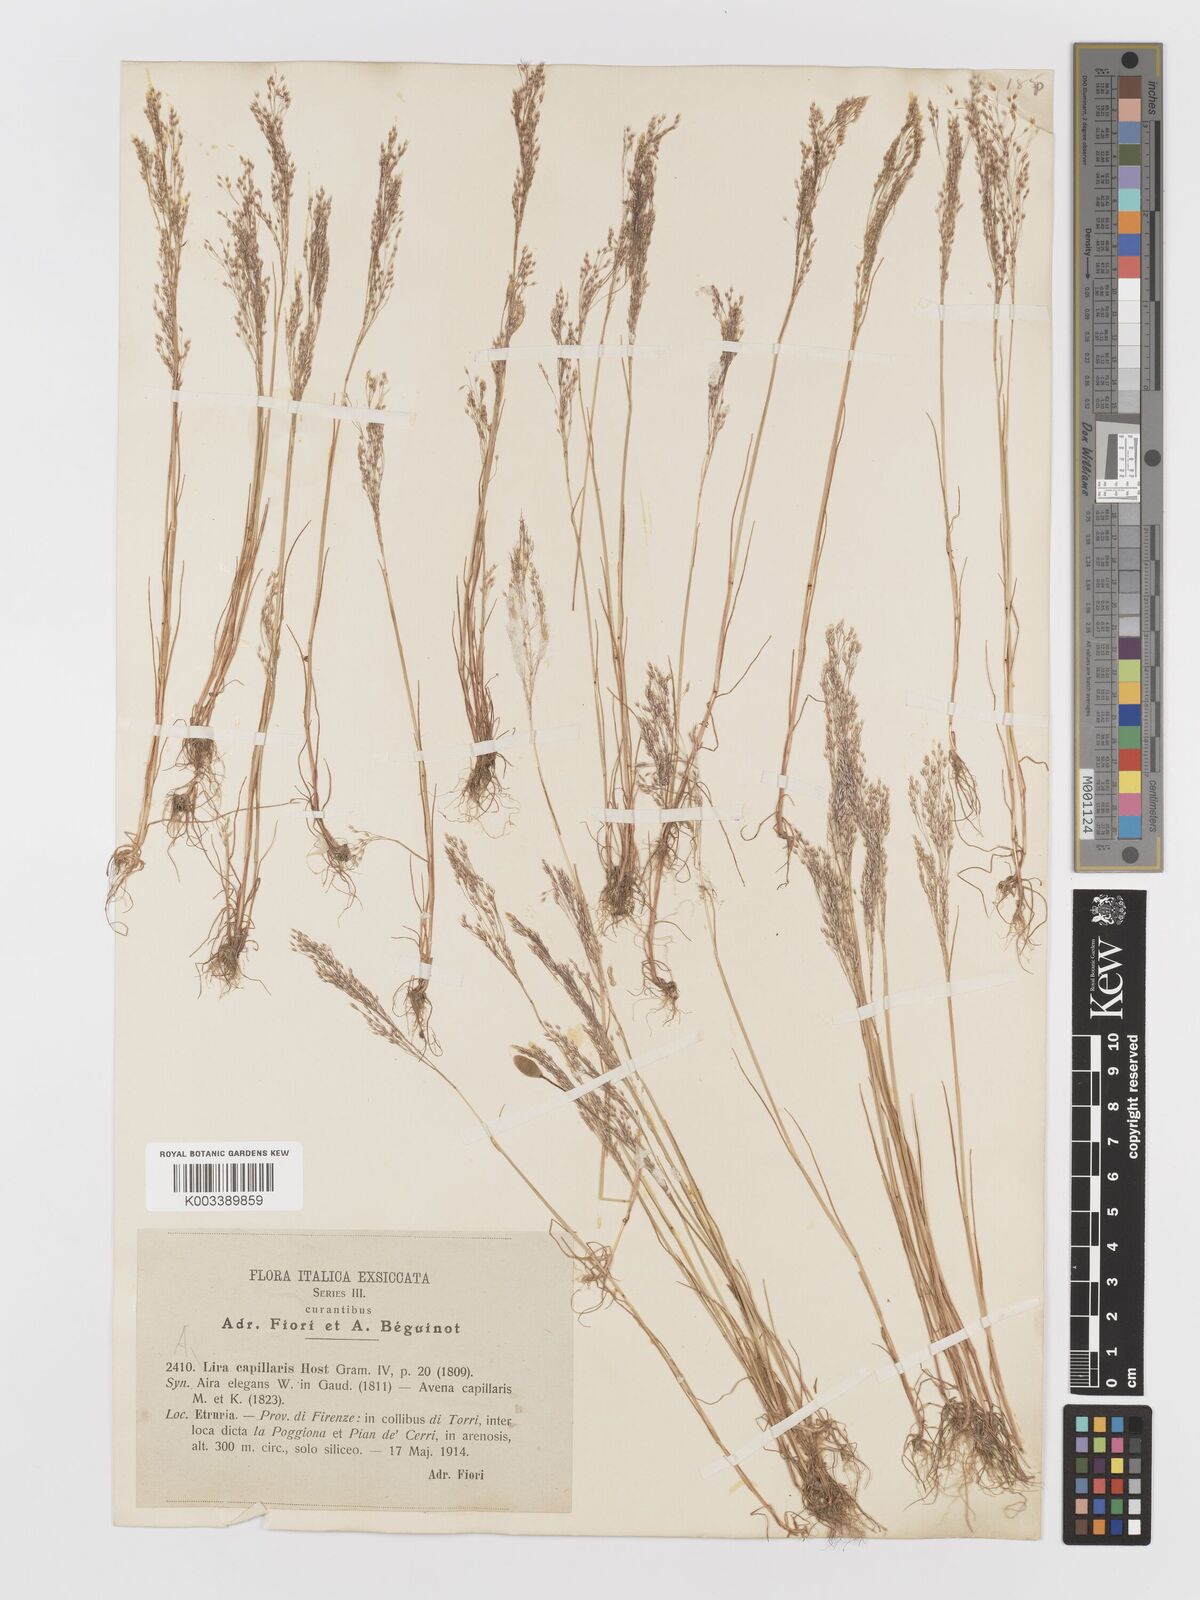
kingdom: Plantae
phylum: Tracheophyta
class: Liliopsida
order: Poales
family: Poaceae
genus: Aira
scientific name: Aira elegans
